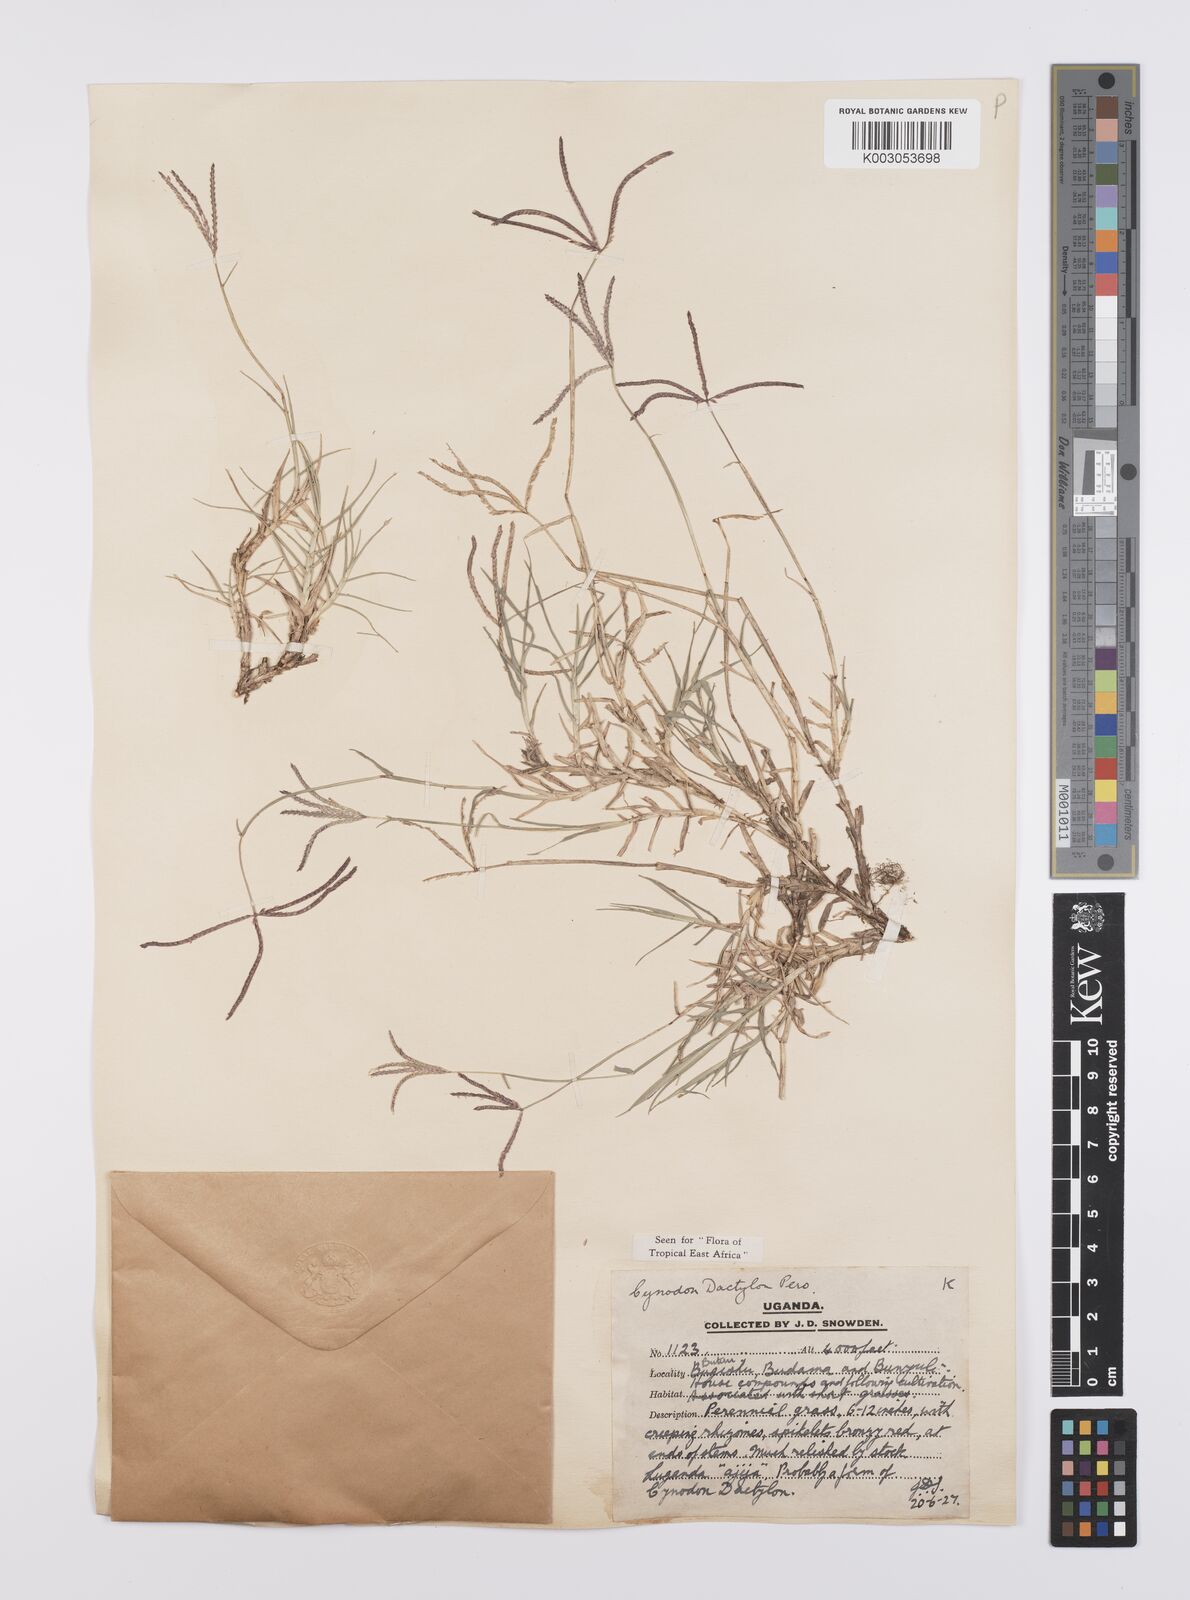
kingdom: Plantae
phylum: Tracheophyta
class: Liliopsida
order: Poales
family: Poaceae
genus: Cynodon
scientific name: Cynodon dactylon
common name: Bermuda grass
